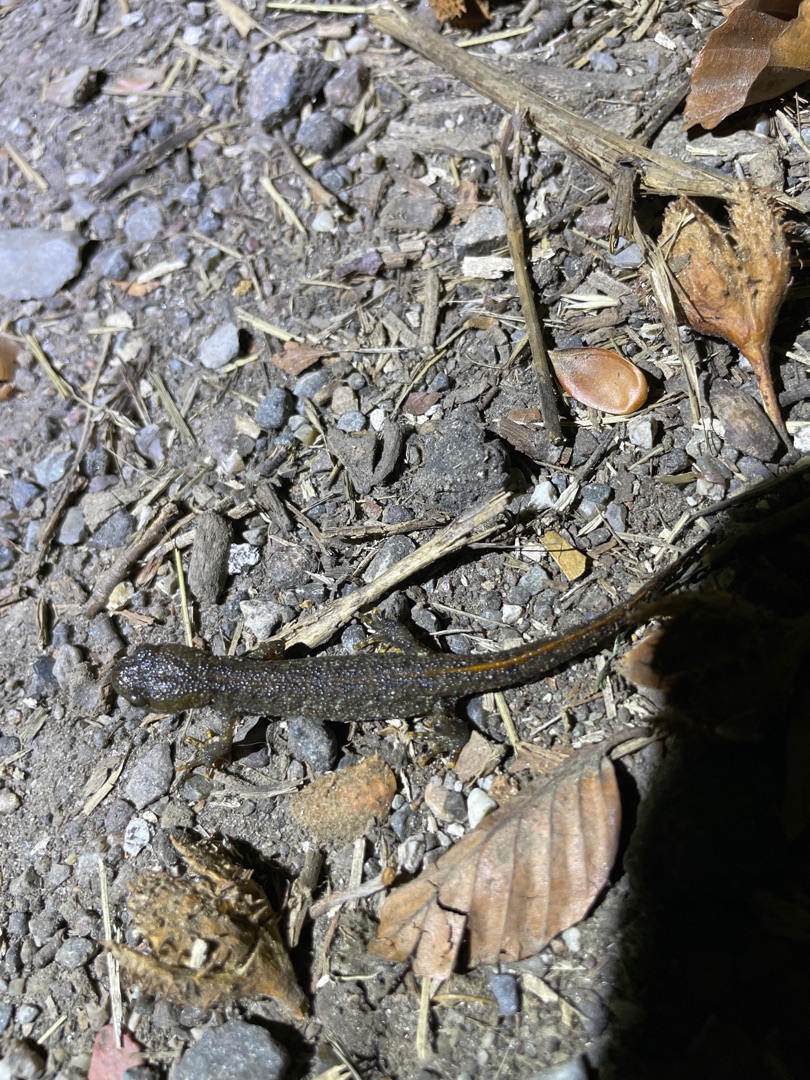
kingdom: Animalia
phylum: Chordata
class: Amphibia
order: Caudata
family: Salamandridae
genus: Triturus
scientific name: Triturus cristatus
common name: Stor vandsalamander
